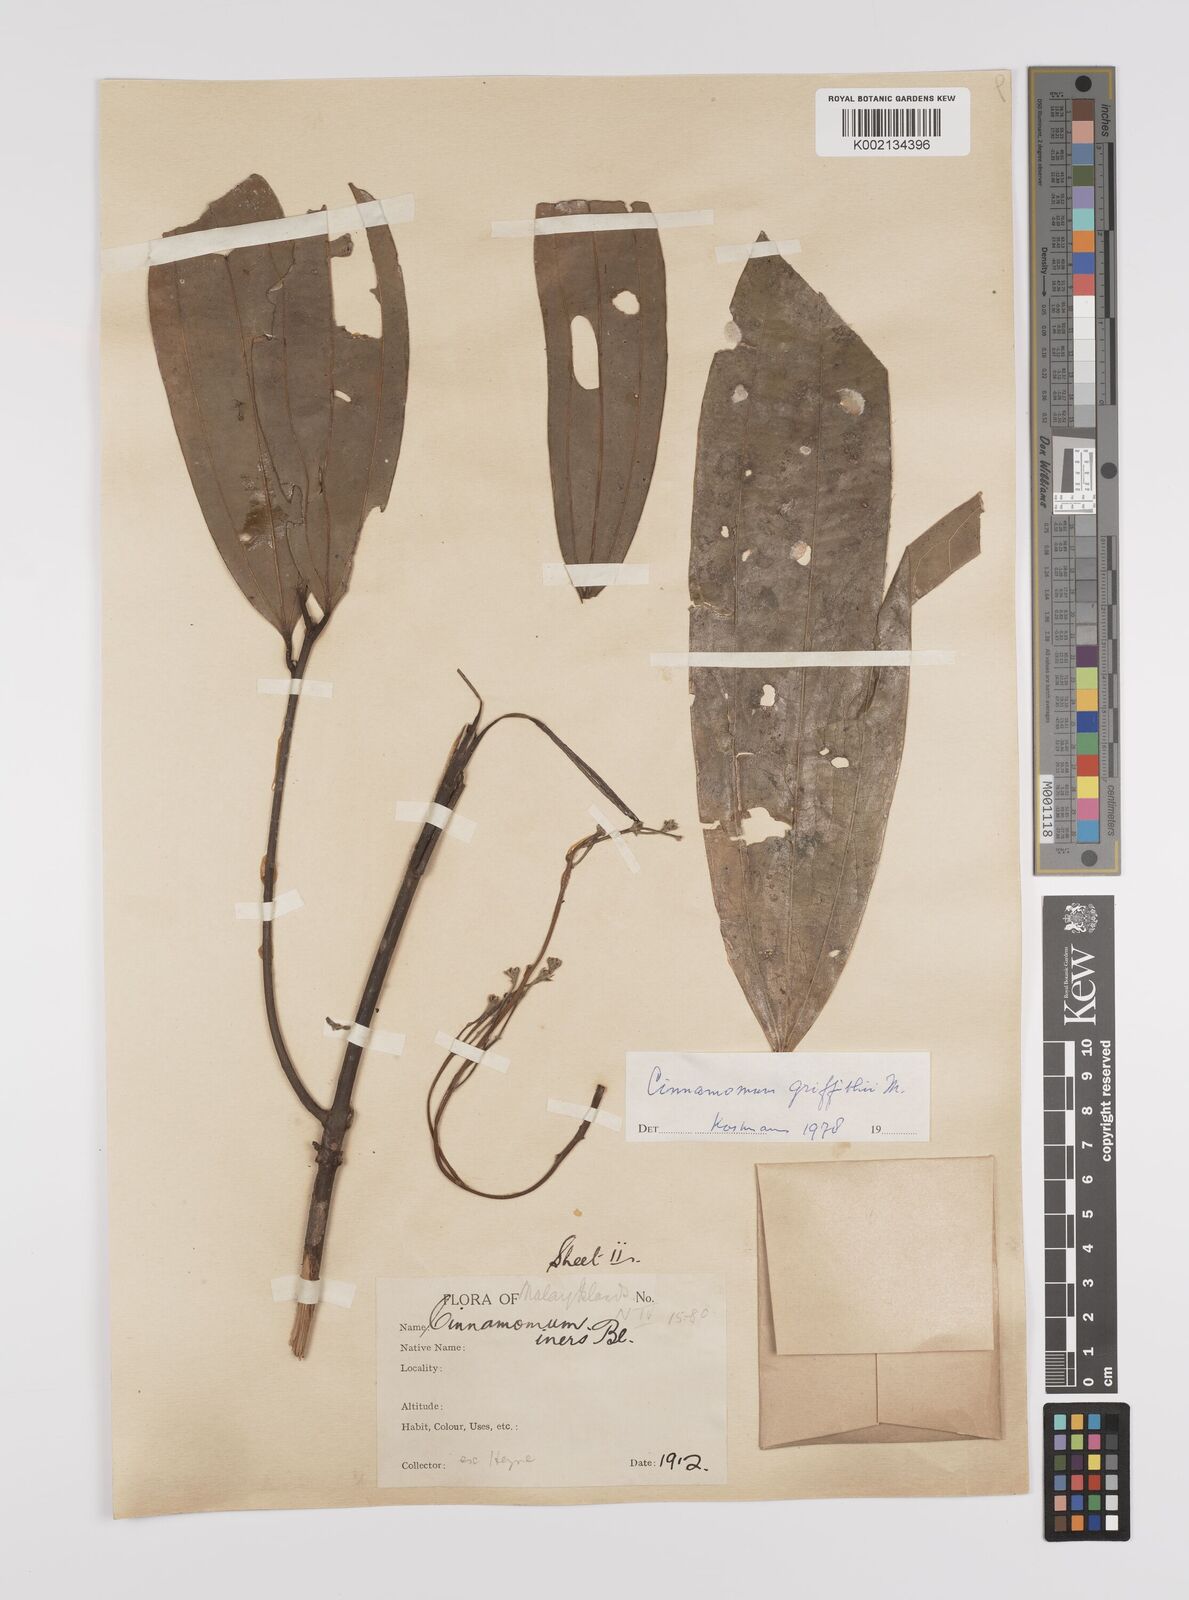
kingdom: Plantae
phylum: Tracheophyta
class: Magnoliopsida
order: Laurales
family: Lauraceae
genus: Cinnamomum
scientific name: Cinnamomum iners
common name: Wild cinnamon
